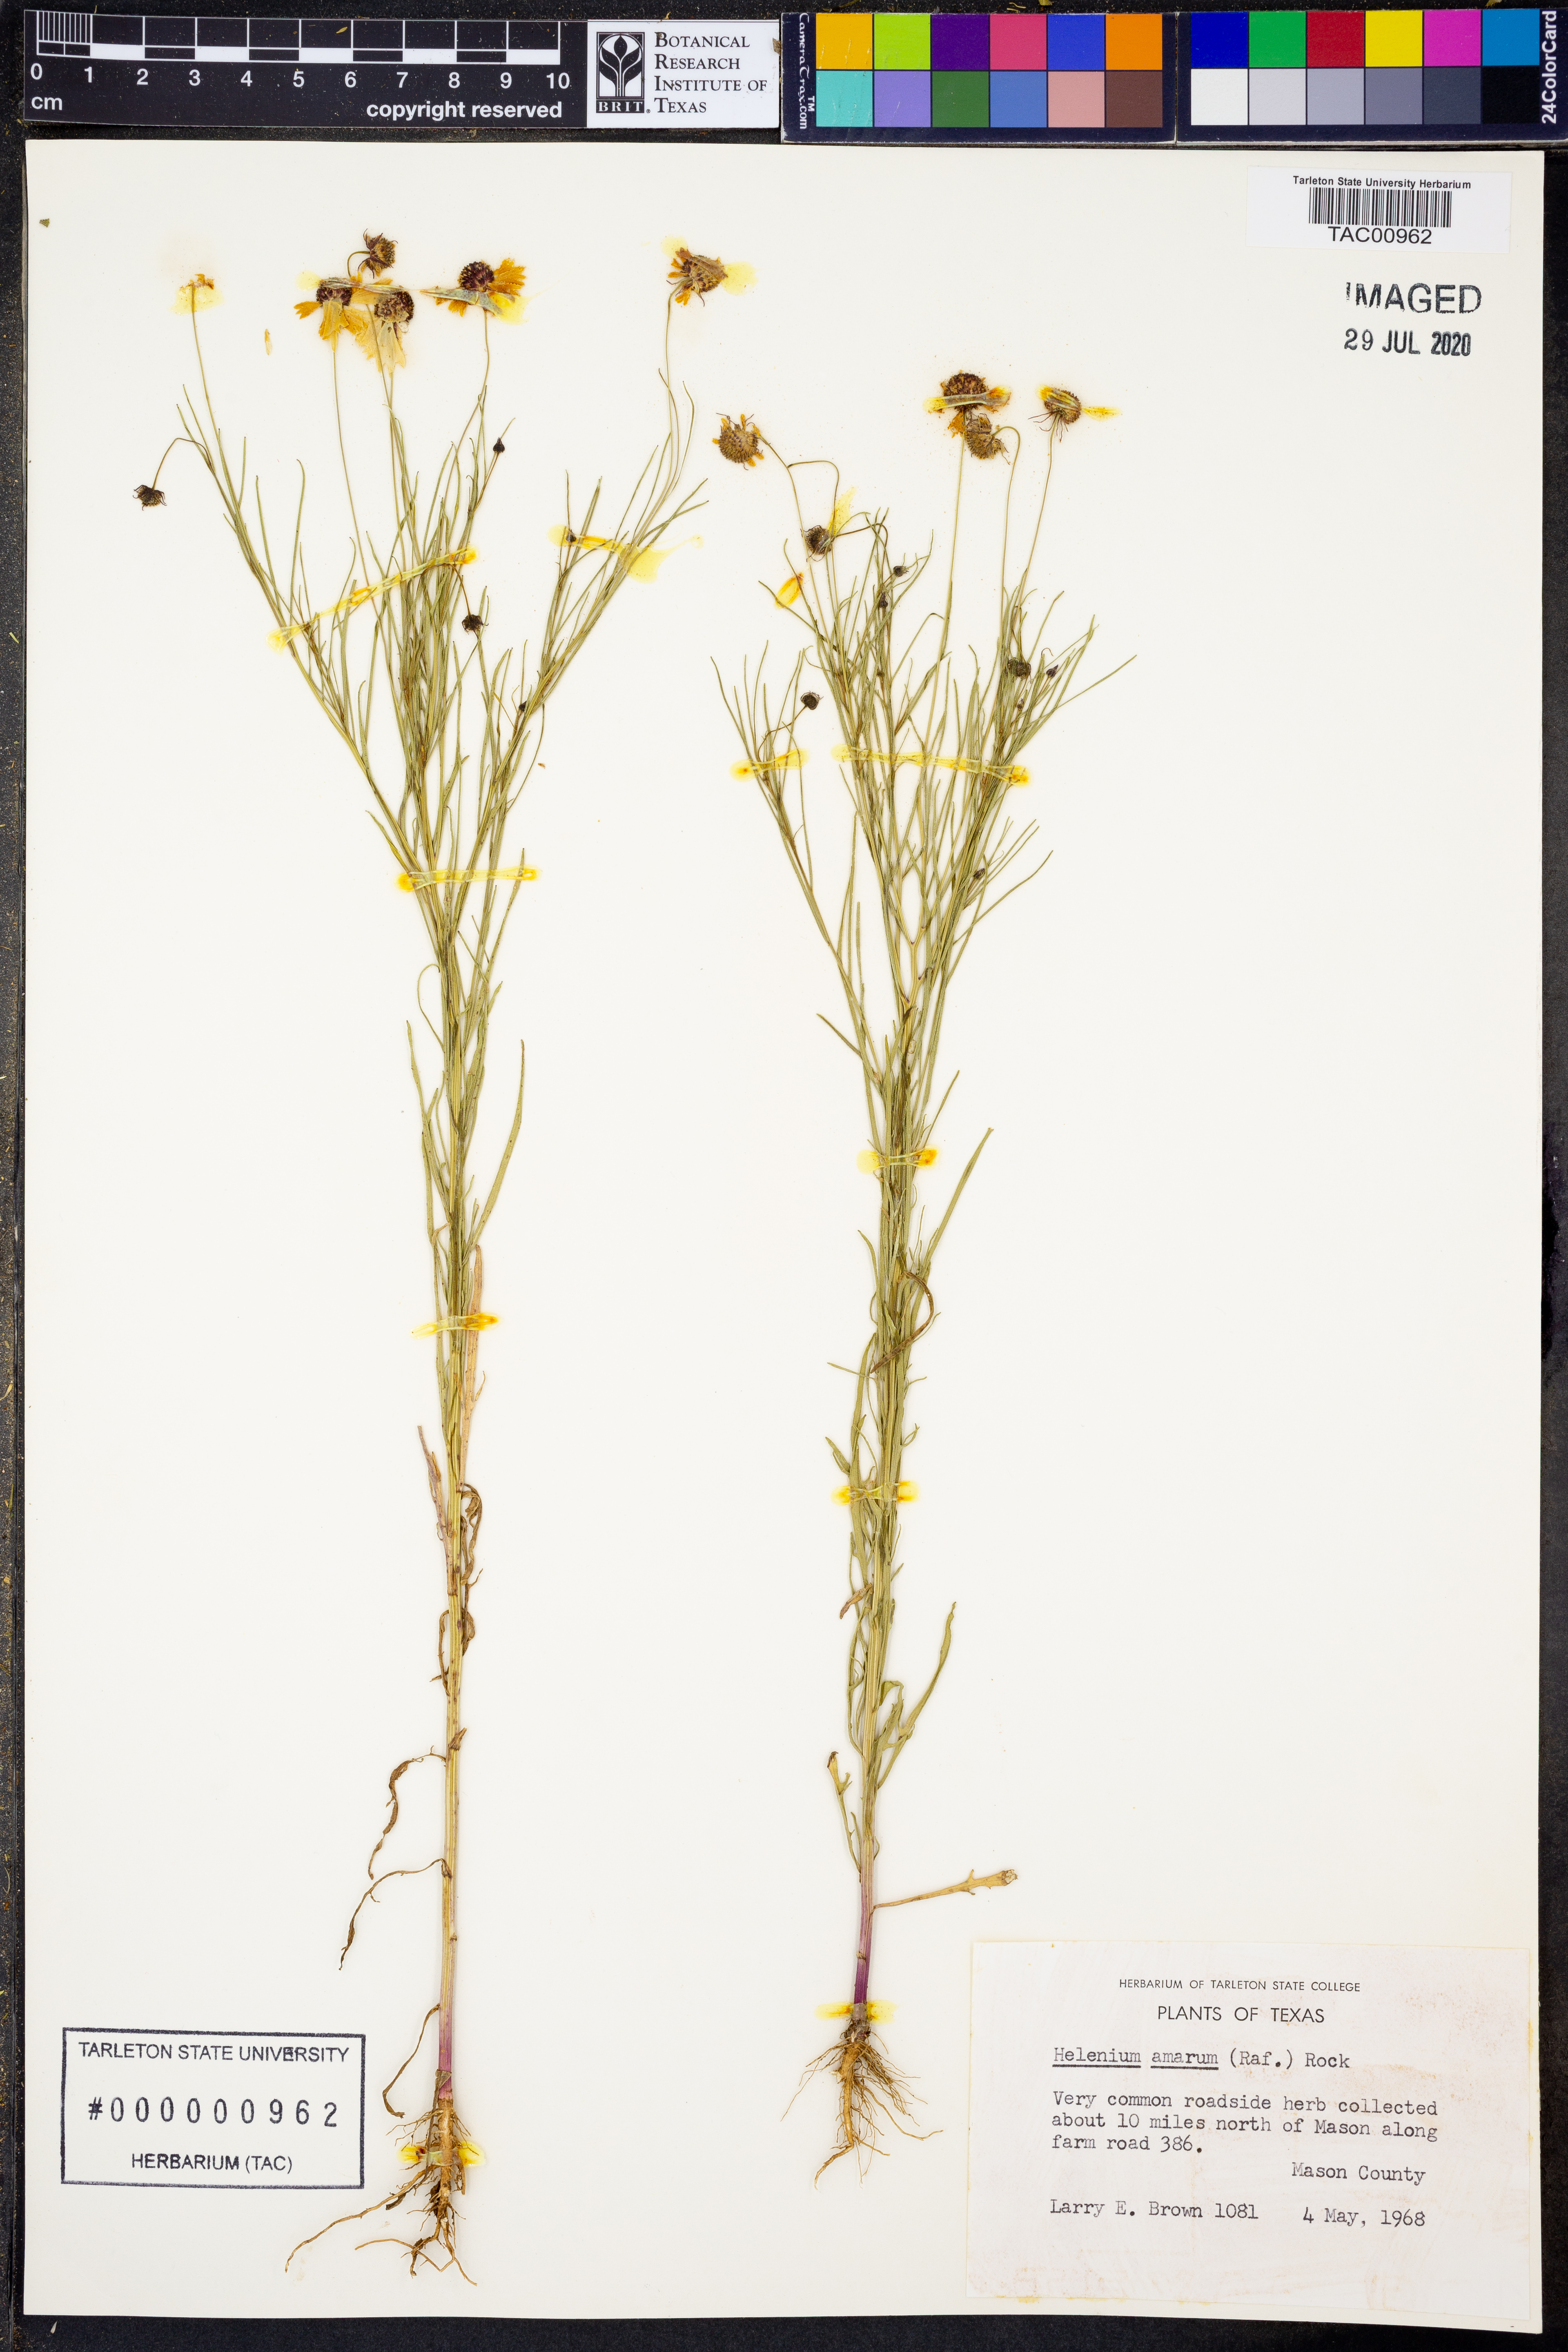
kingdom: Plantae
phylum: Tracheophyta
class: Magnoliopsida
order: Asterales
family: Asteraceae
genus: Helenium
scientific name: Helenium amarum
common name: Bitter sneezeweed
